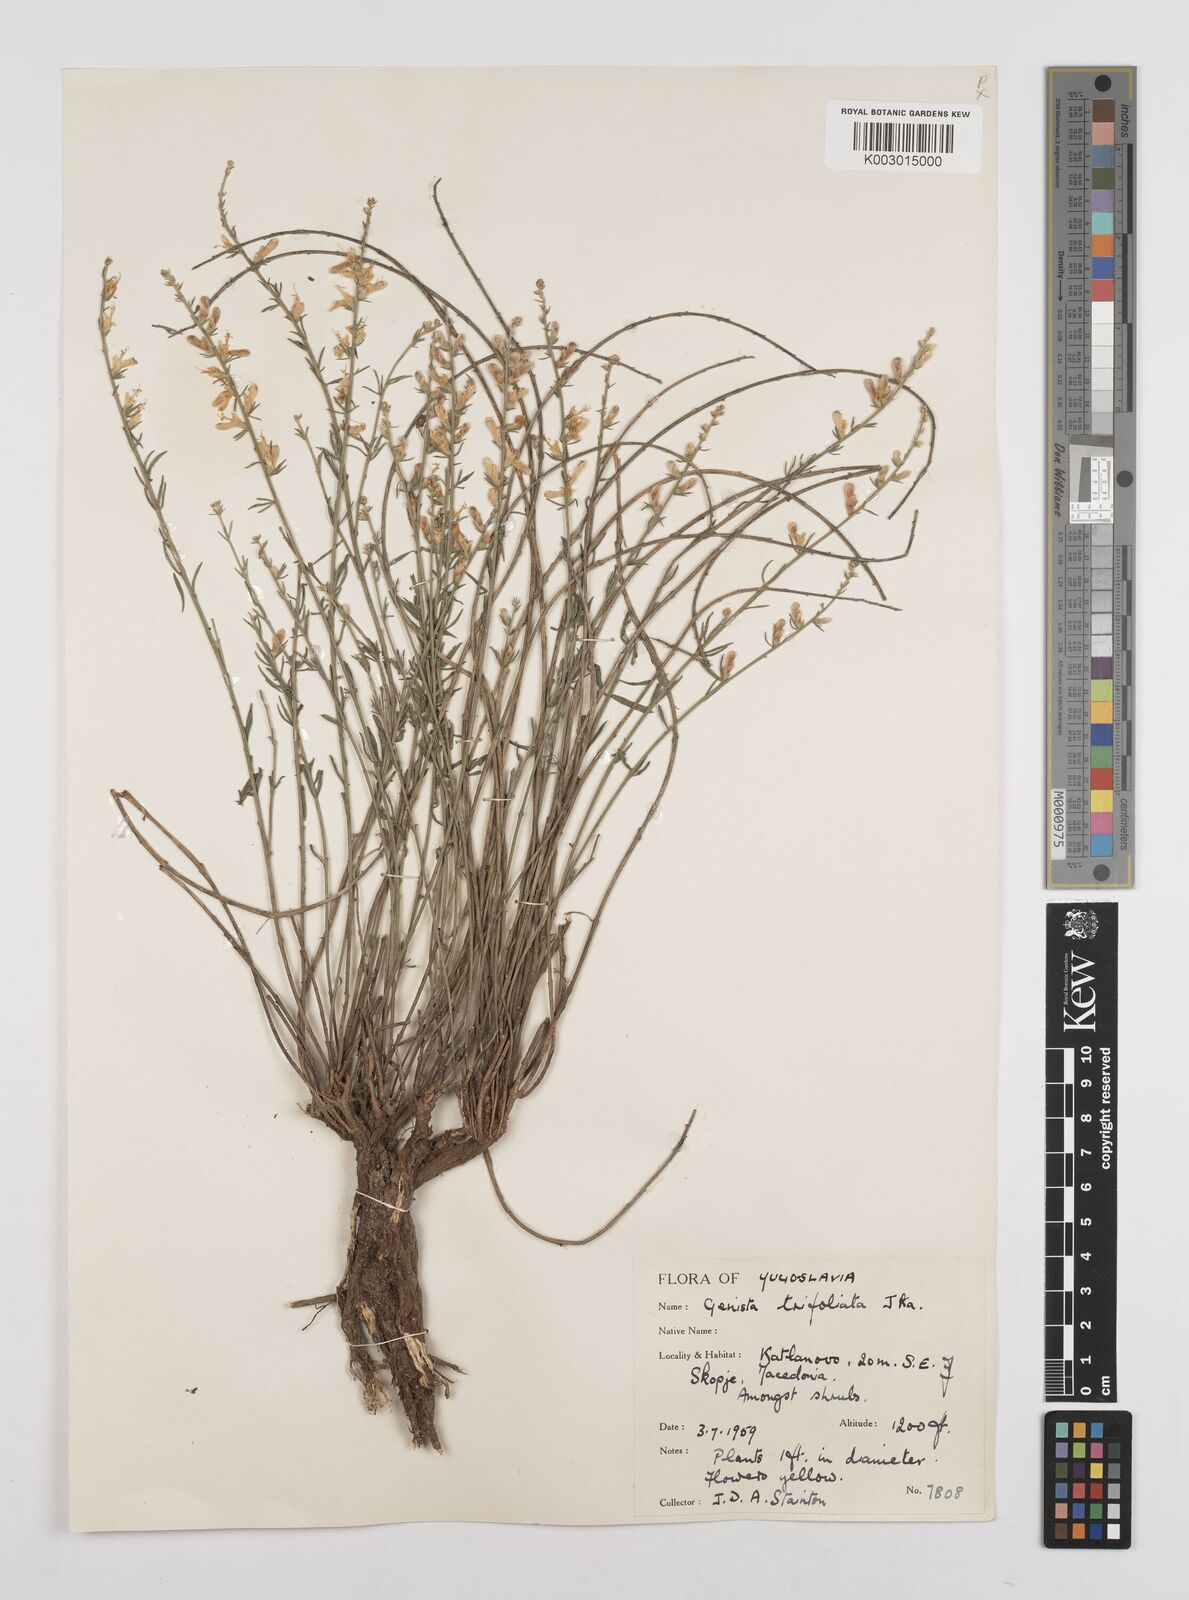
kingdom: Plantae
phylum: Tracheophyta
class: Magnoliopsida
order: Fabales
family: Fabaceae
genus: Genista
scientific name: Genista sessilifolia
